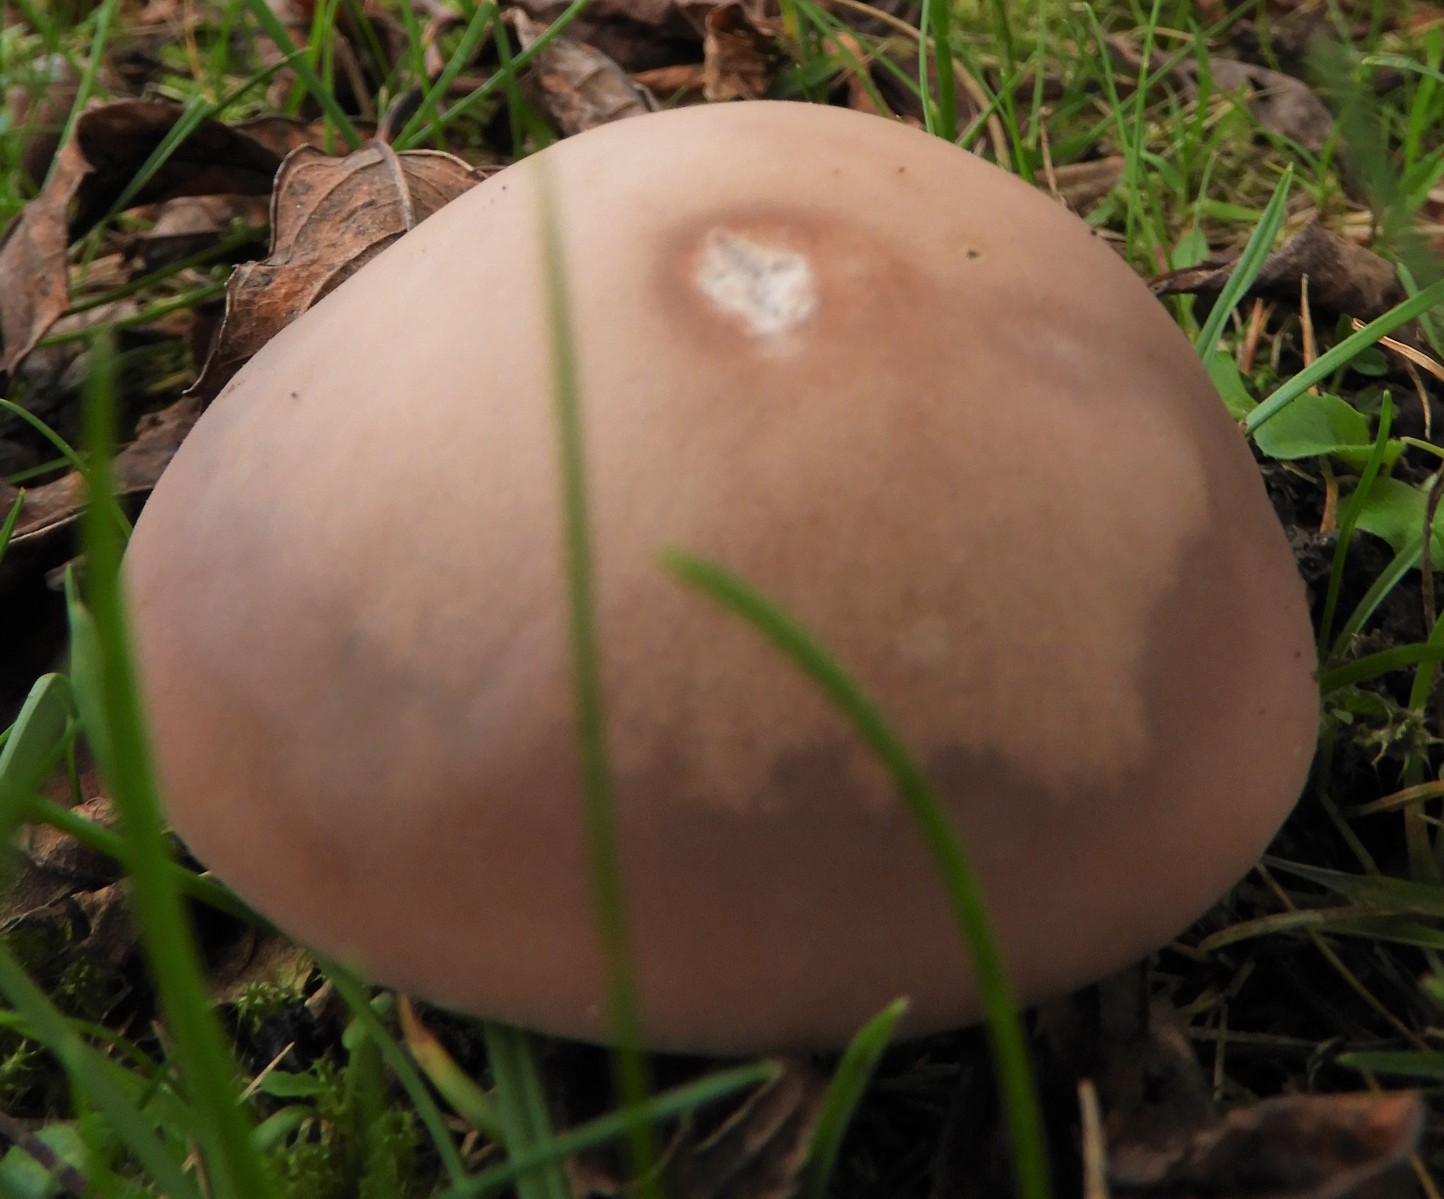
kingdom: Fungi
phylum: Basidiomycota
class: Agaricomycetes
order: Agaricales
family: Tricholomataceae
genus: Lepista
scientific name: Lepista personata
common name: bleg hekseringshat
